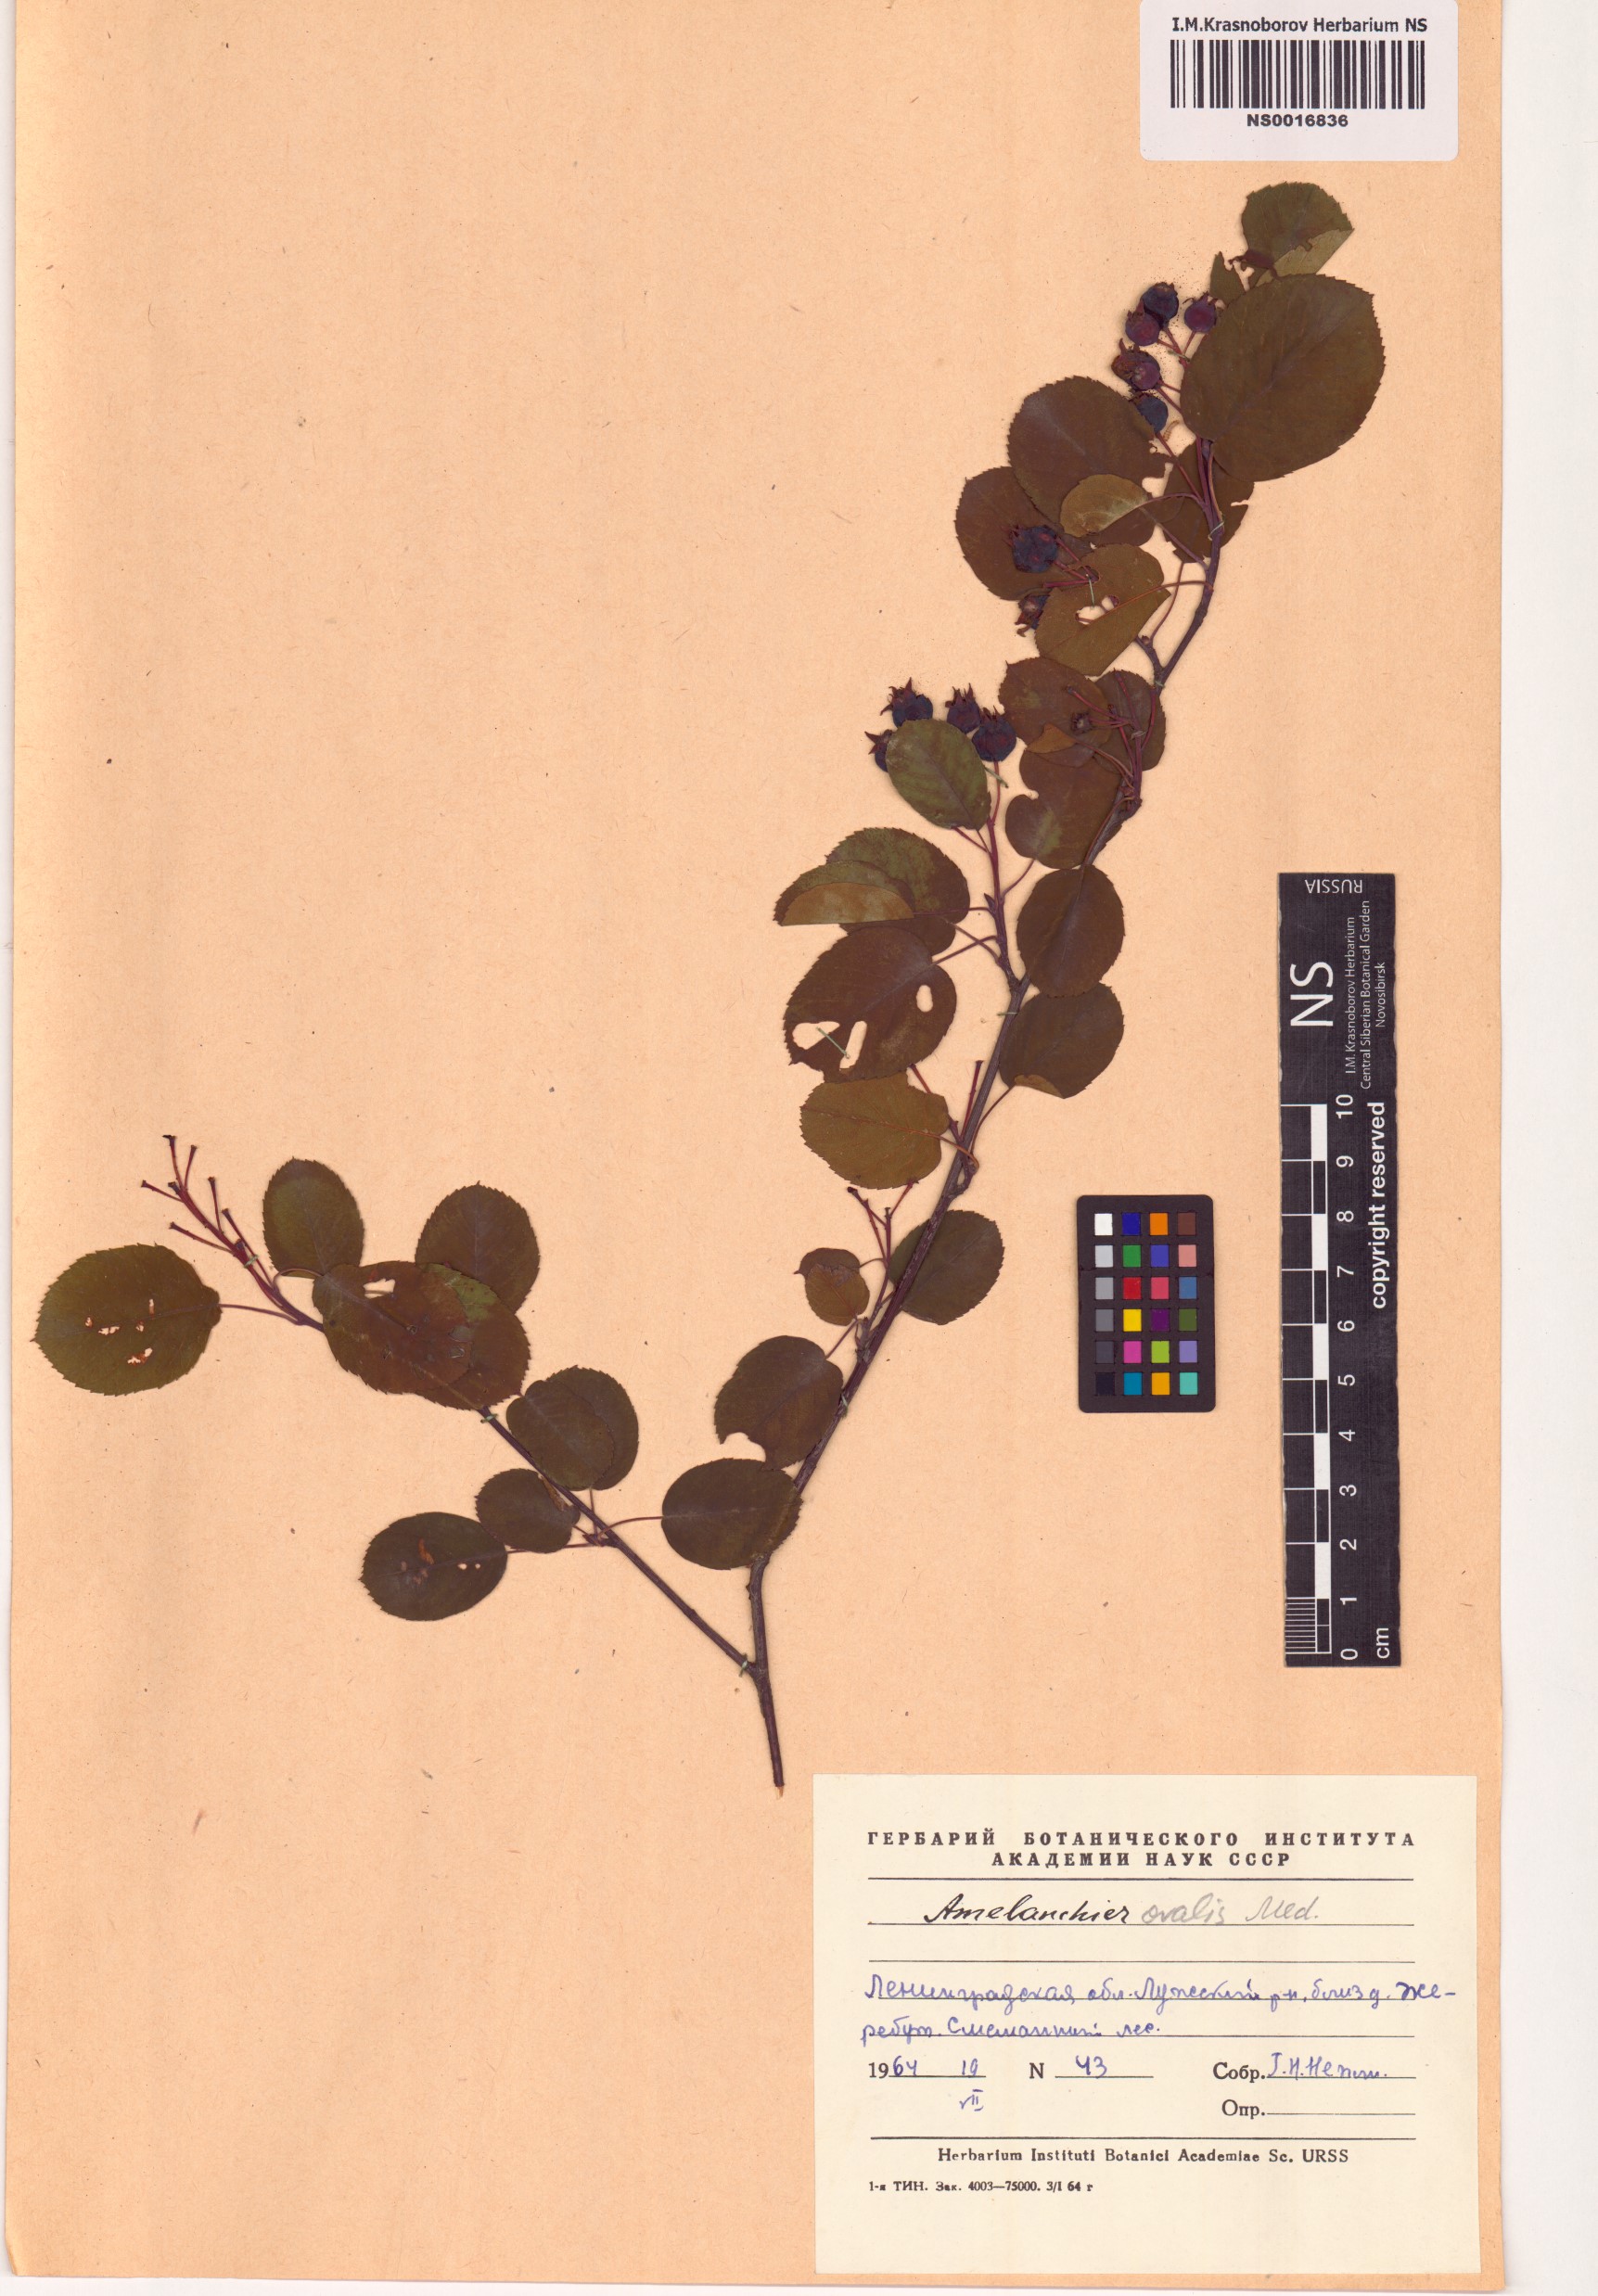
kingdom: Plantae
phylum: Tracheophyta
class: Magnoliopsida
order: Rosales
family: Rosaceae
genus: Amelanchier
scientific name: Amelanchier ovalis
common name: Serviceberry
